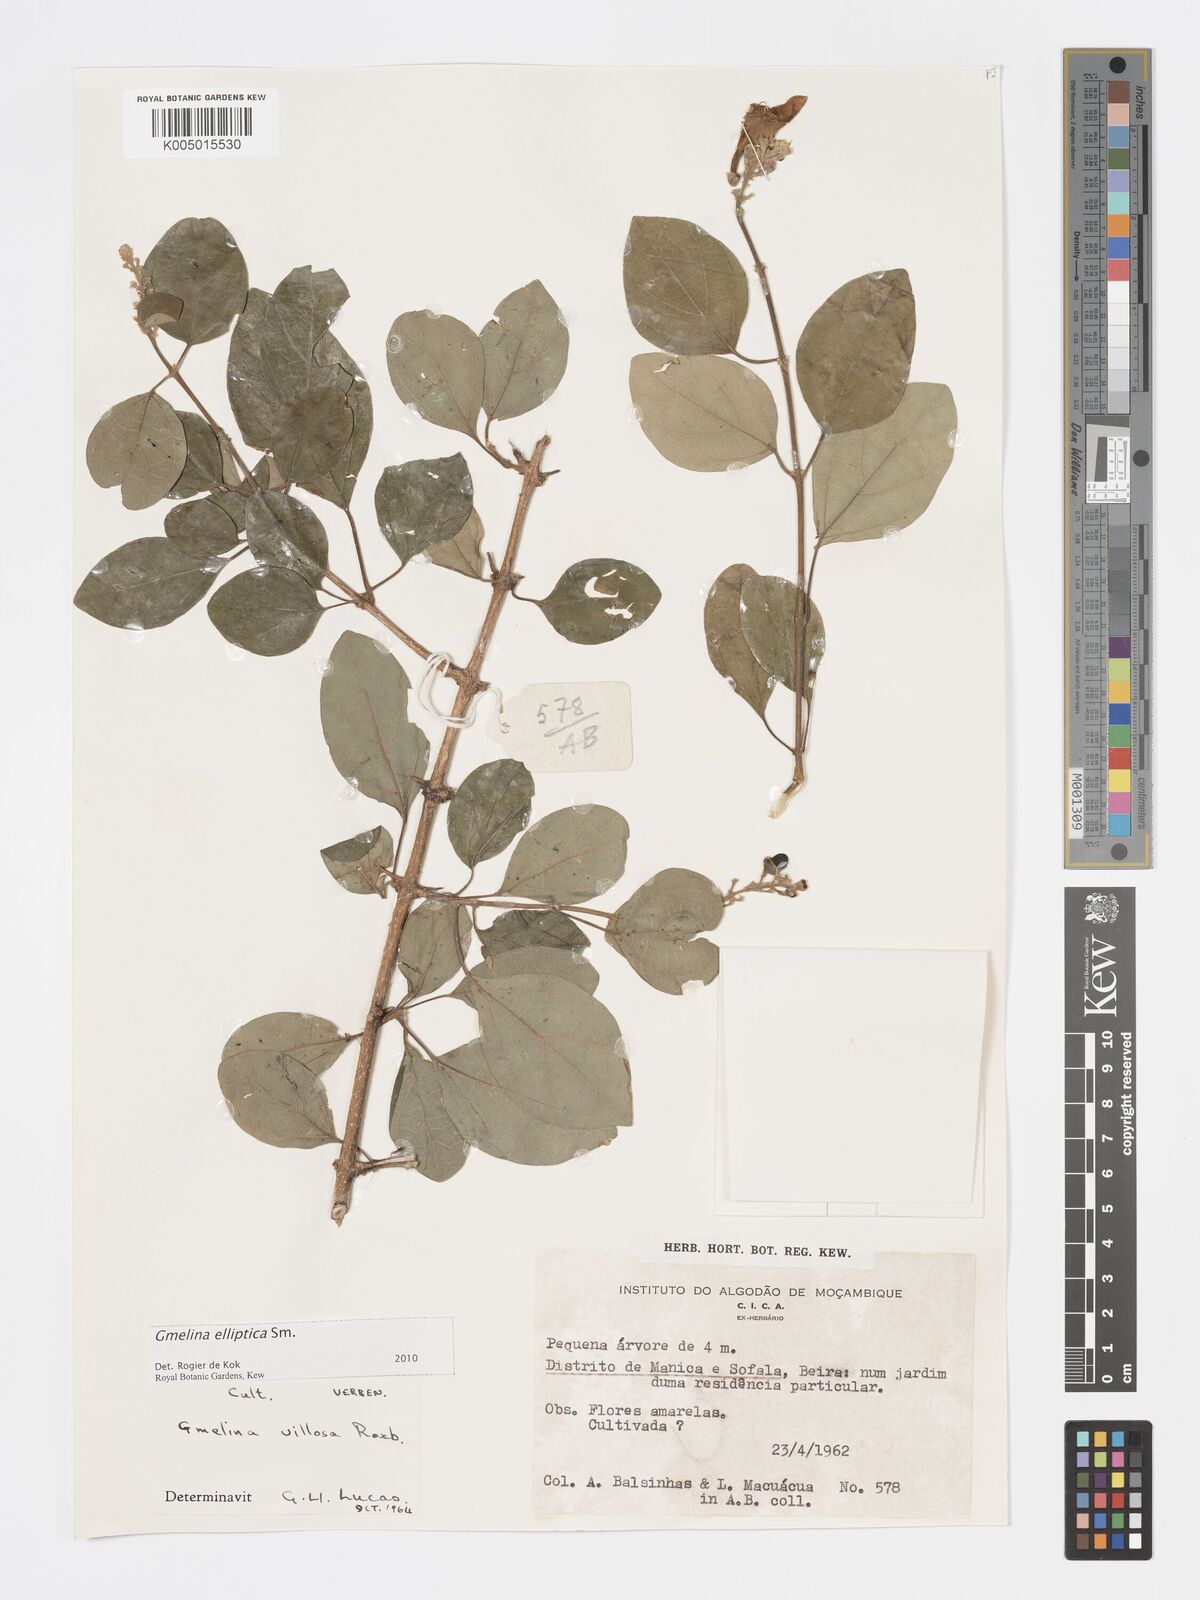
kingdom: Plantae
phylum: Tracheophyta
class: Magnoliopsida
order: Lamiales
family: Lamiaceae
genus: Gmelina
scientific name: Gmelina elliptica
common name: Badhara-bush
